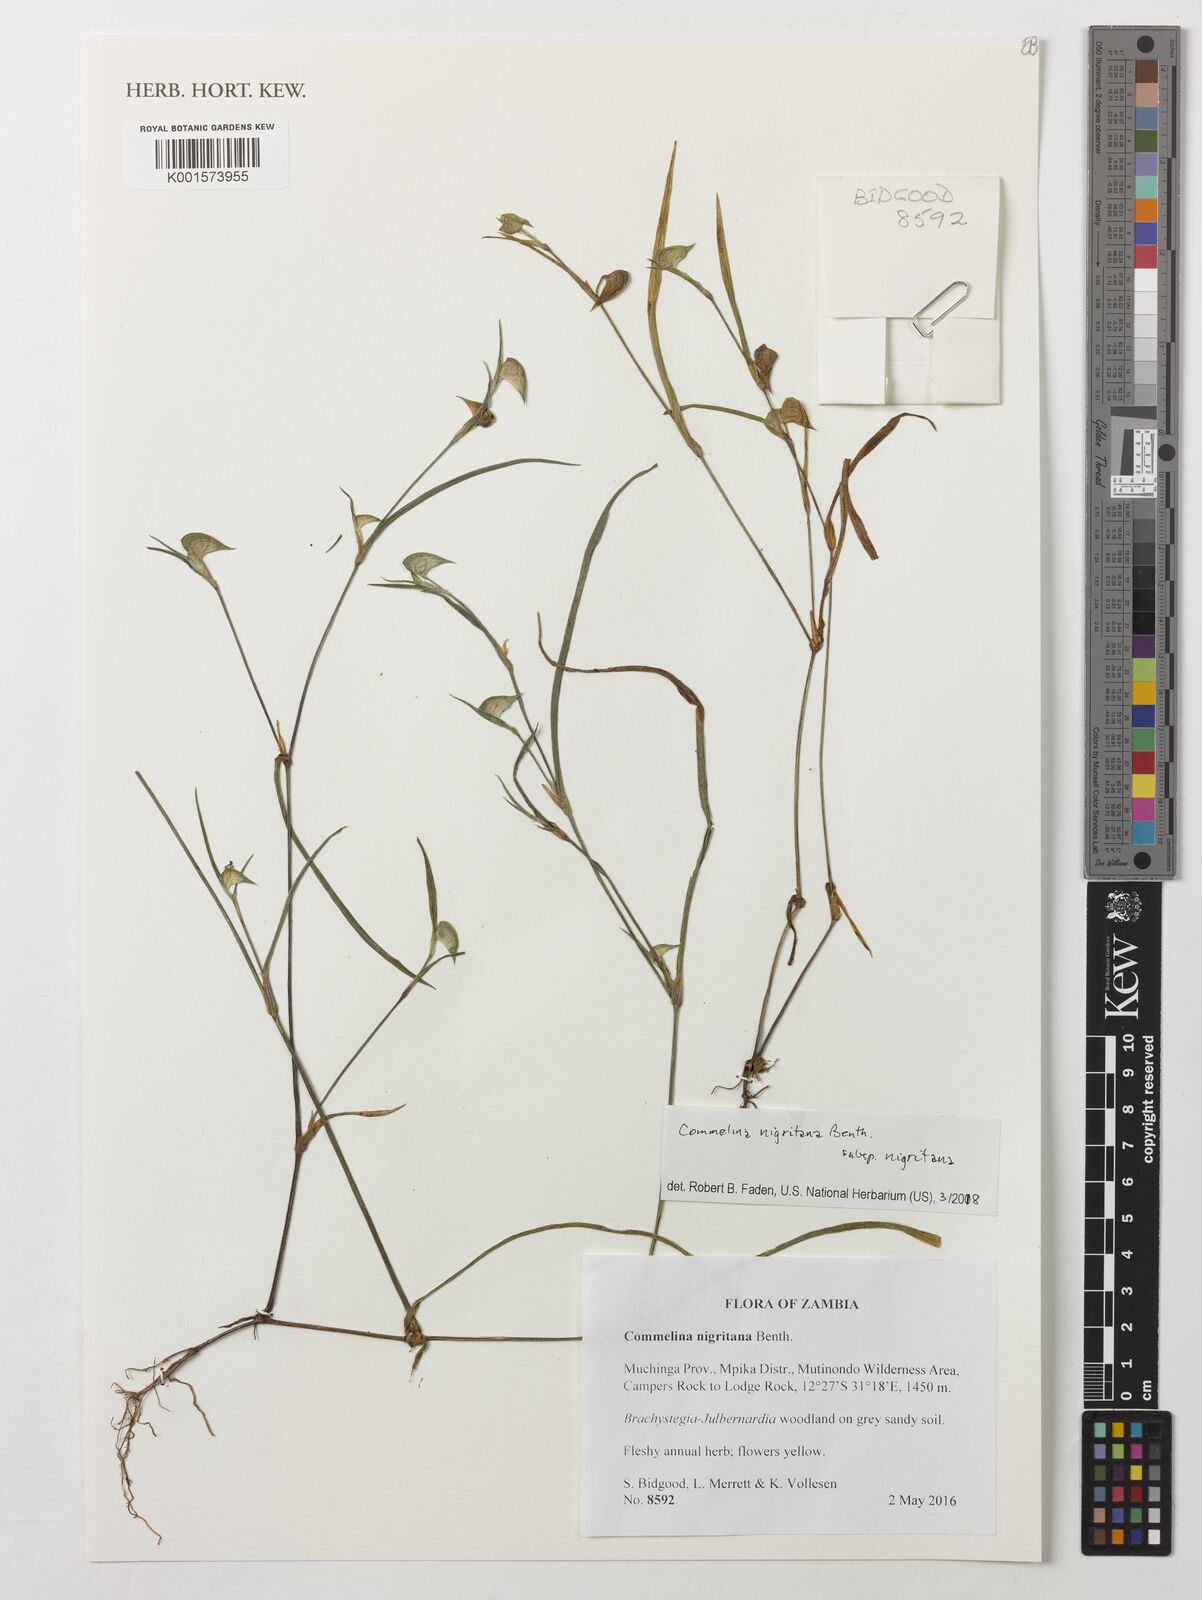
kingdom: Plantae
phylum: Tracheophyta
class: Liliopsida
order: Commelinales
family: Commelinaceae
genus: Commelina
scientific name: Commelina nigritana
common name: African dayflower
